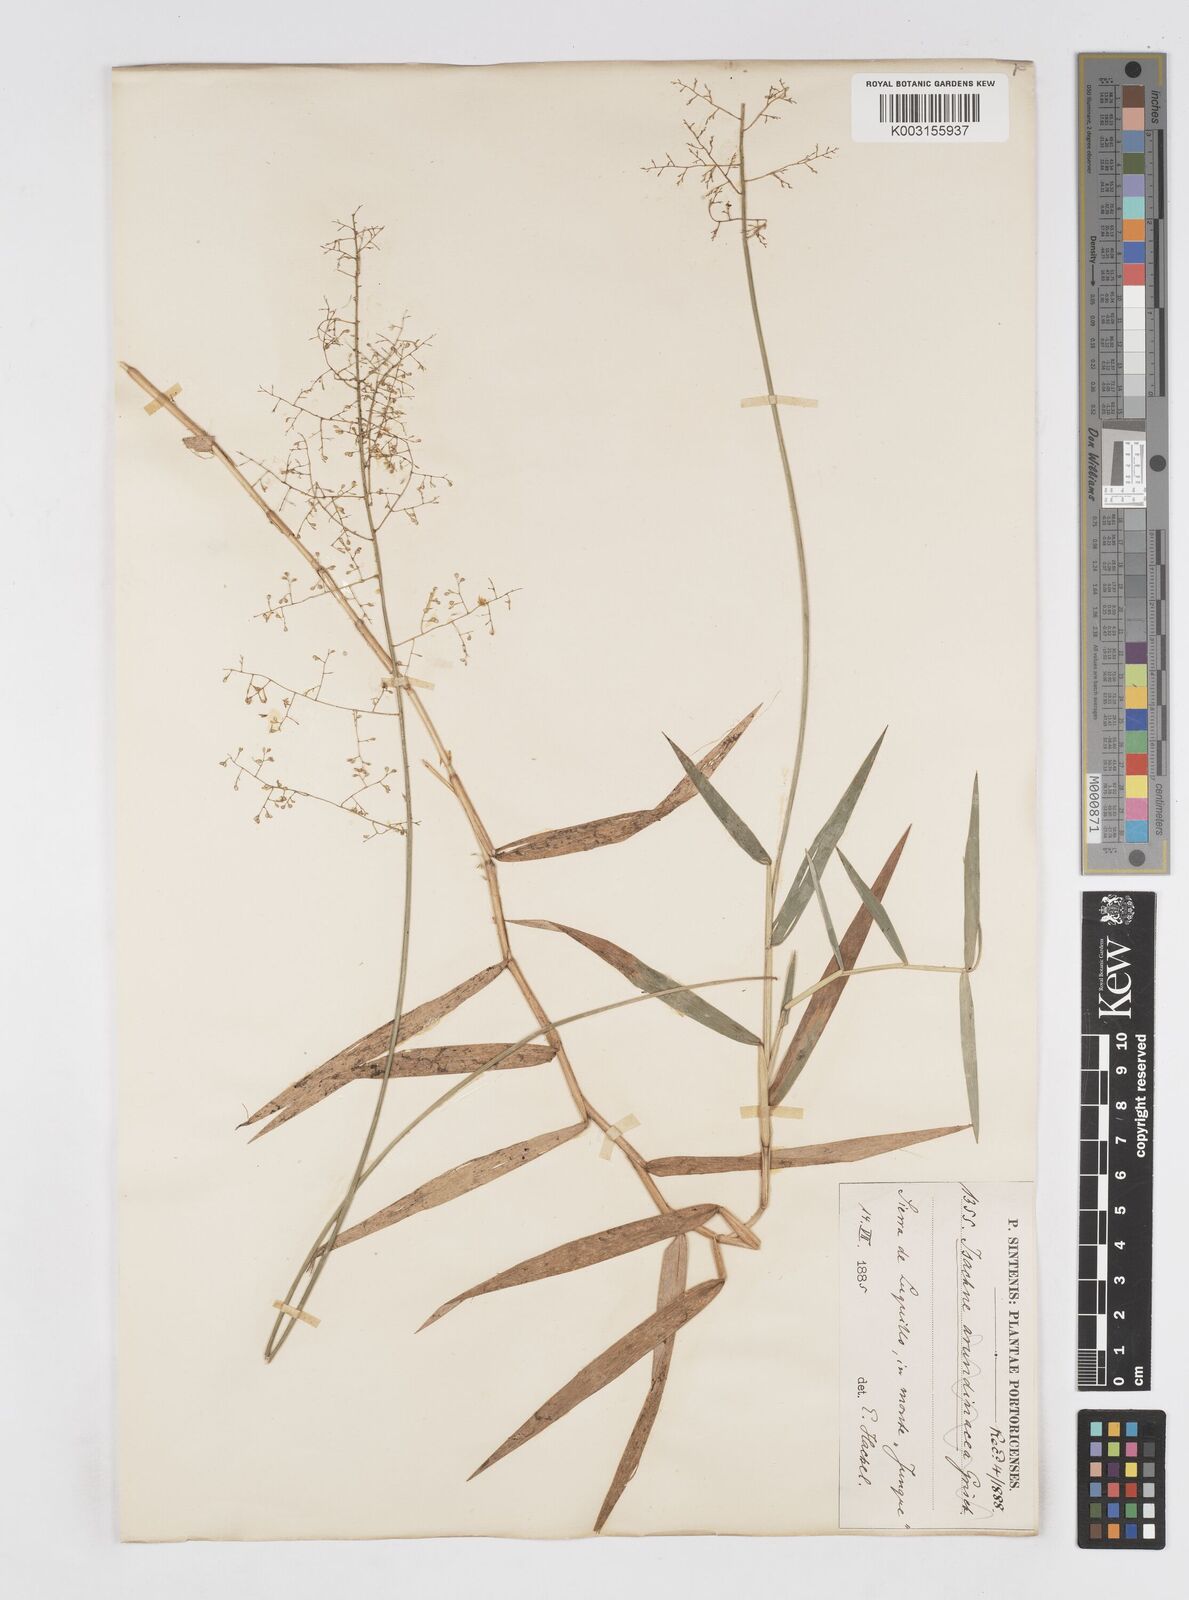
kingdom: Plantae
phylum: Tracheophyta
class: Liliopsida
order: Poales
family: Poaceae
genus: Isachne
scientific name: Isachne
